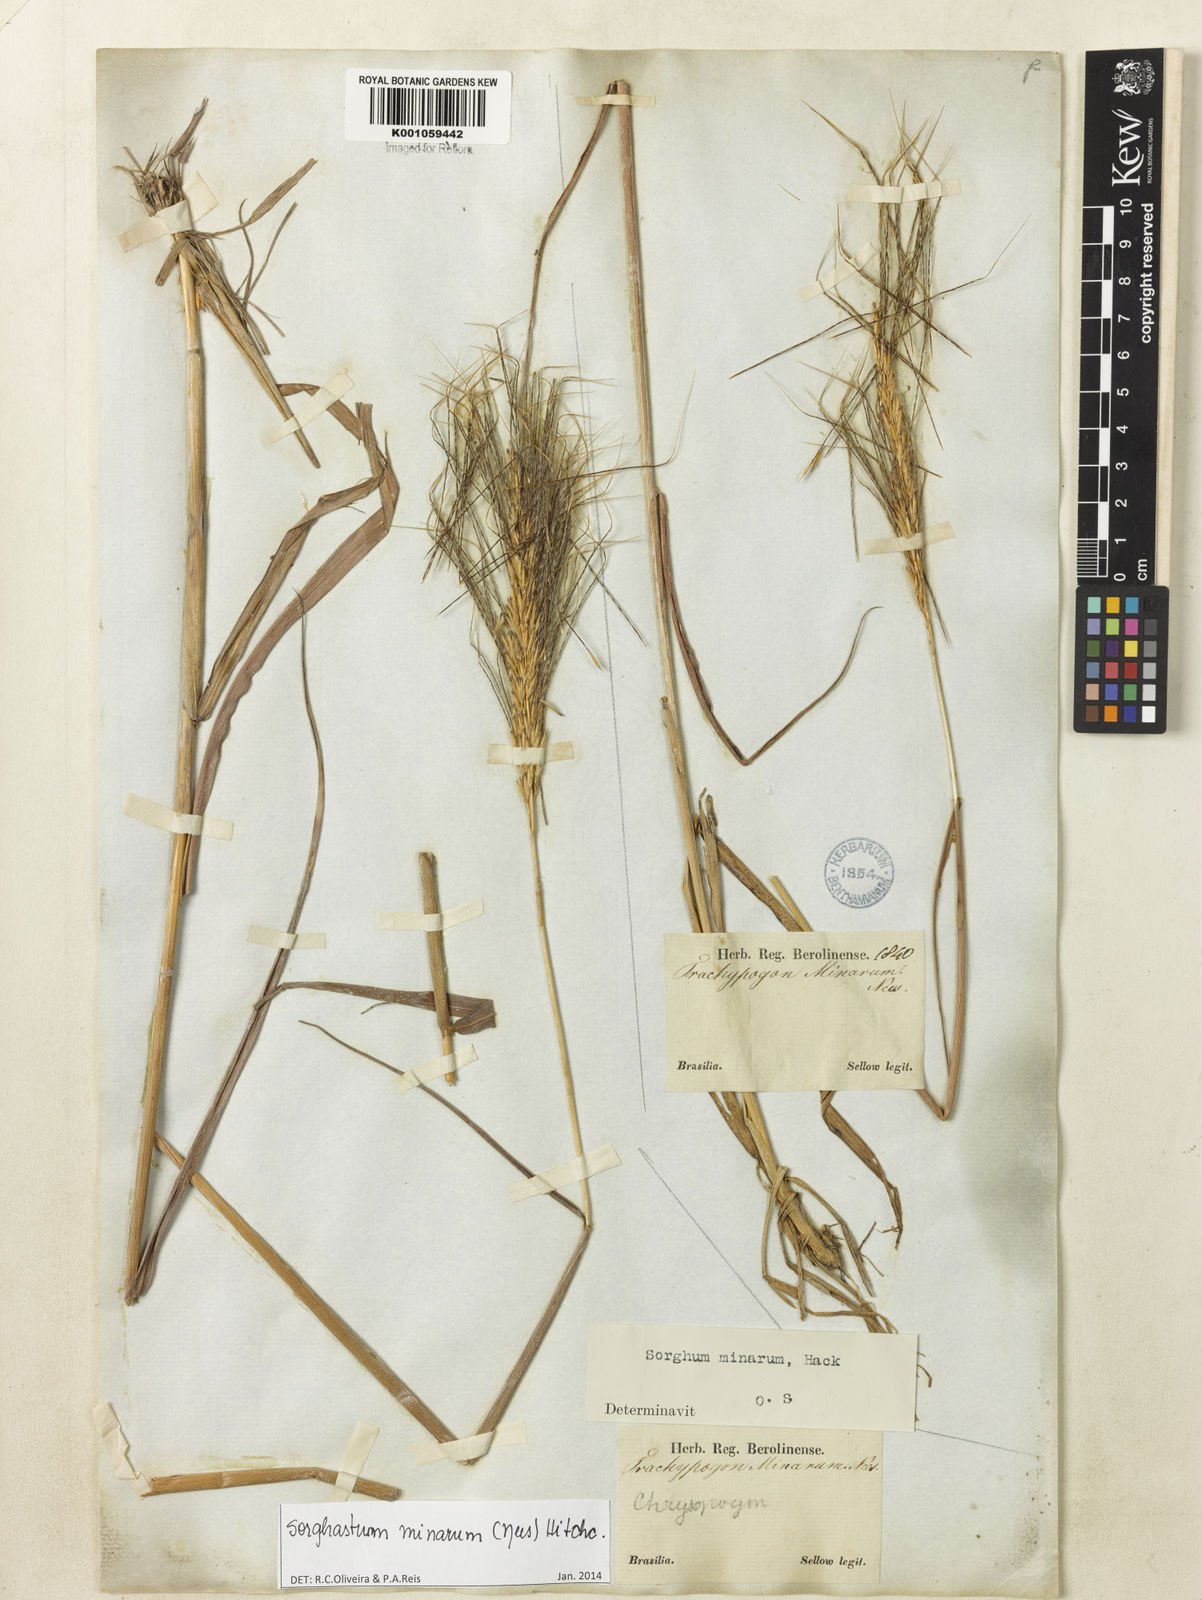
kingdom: Plantae
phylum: Tracheophyta
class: Liliopsida
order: Poales
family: Poaceae
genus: Sorghastrum
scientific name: Sorghastrum minarum
